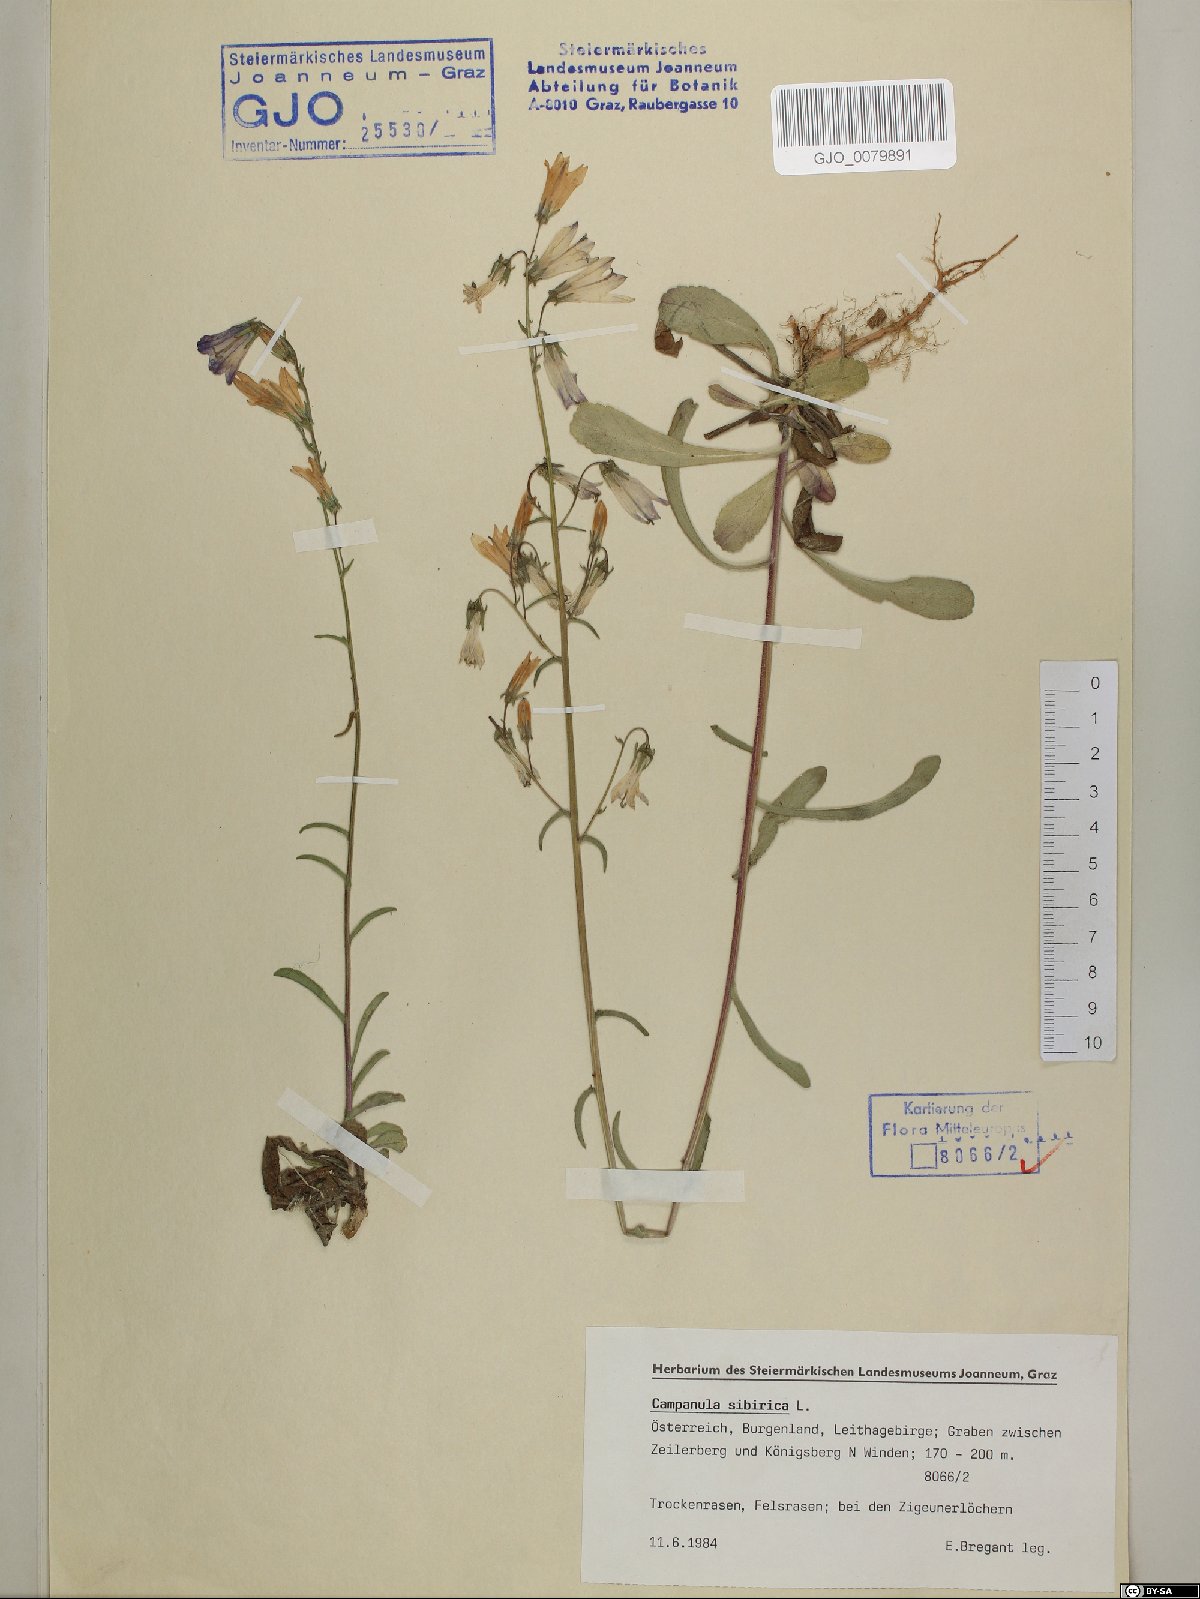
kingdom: Plantae
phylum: Tracheophyta
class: Magnoliopsida
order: Asterales
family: Campanulaceae
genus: Campanula
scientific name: Campanula sibirica
